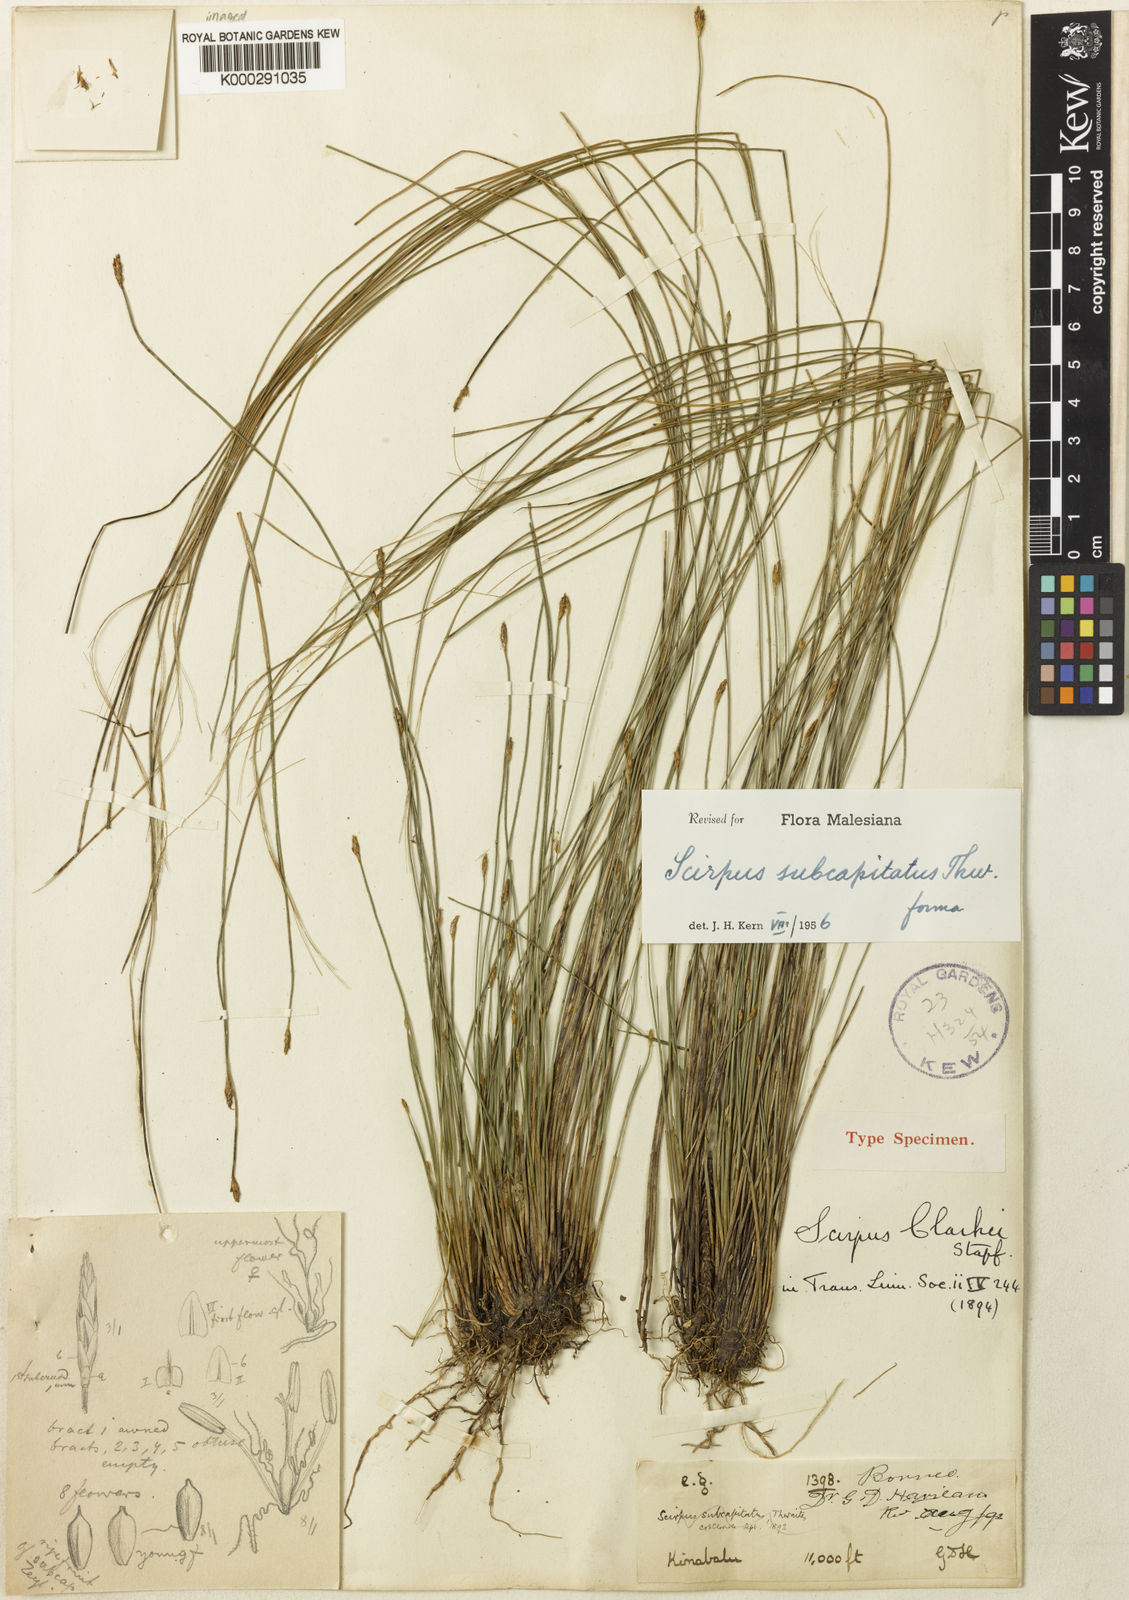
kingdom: Plantae
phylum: Tracheophyta
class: Liliopsida
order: Poales
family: Cyperaceae
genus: Trichophorum
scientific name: Trichophorum subcapitatum
